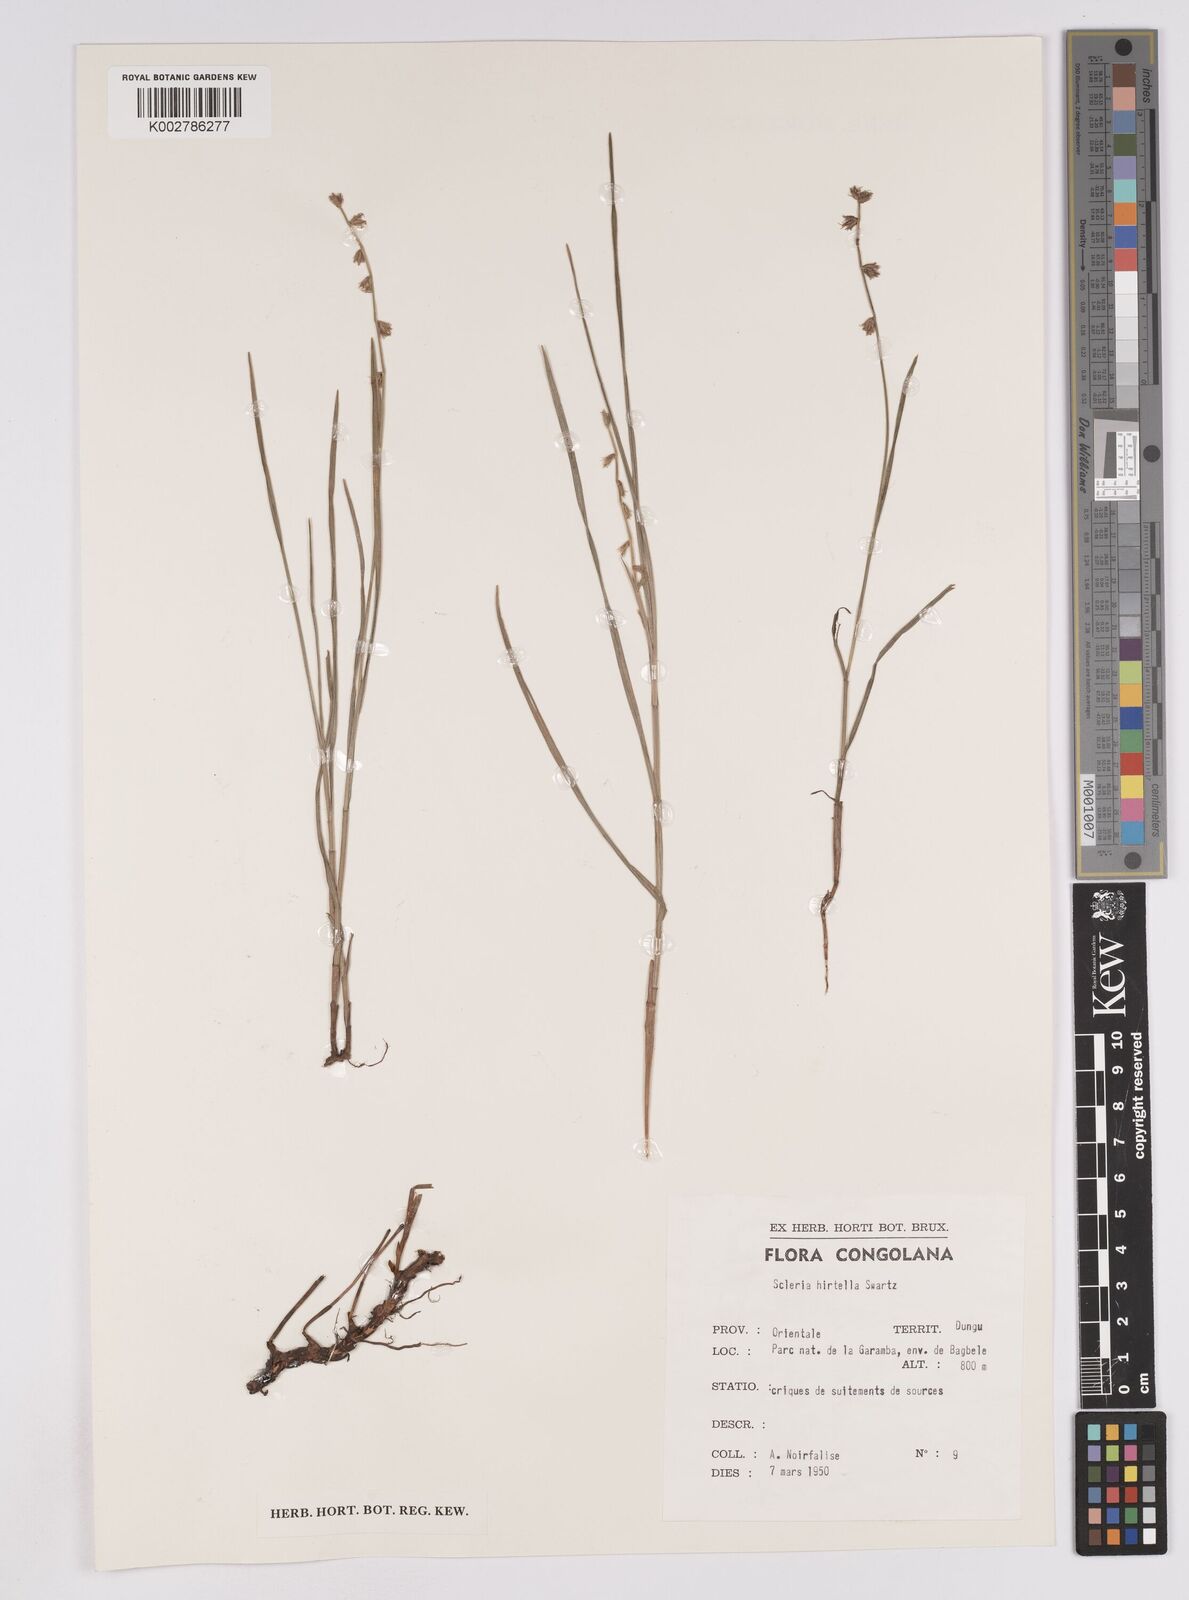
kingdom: Plantae
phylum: Tracheophyta
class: Liliopsida
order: Poales
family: Cyperaceae
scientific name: Cyperaceae
